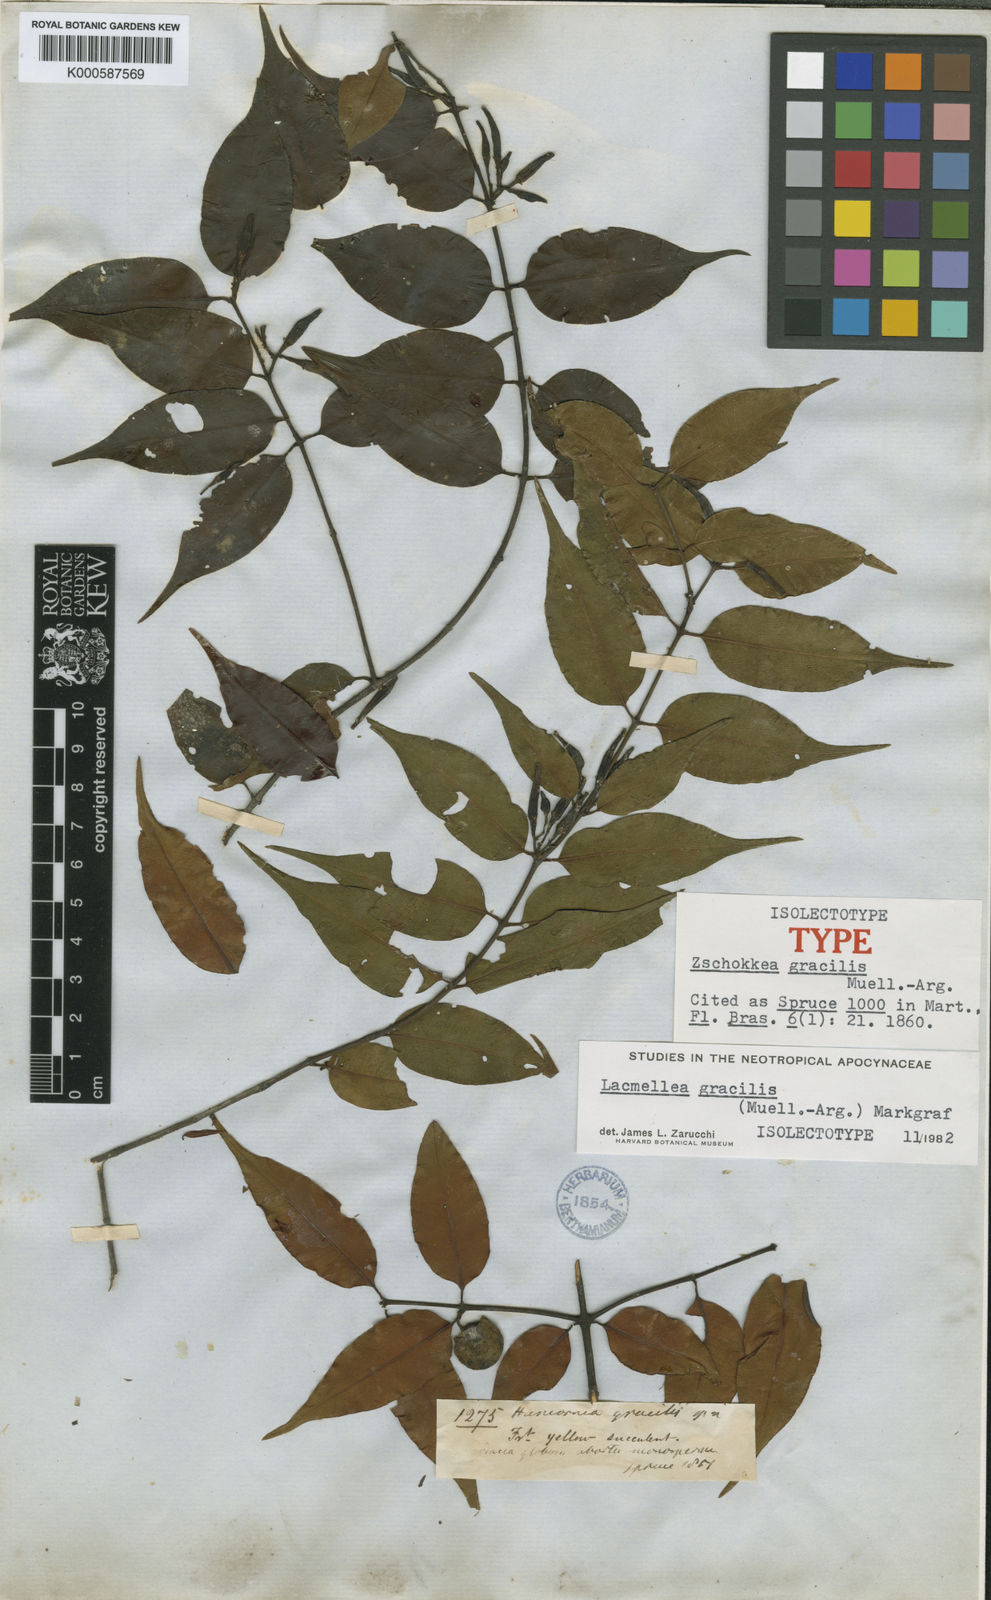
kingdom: Plantae
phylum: Tracheophyta
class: Magnoliopsida
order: Gentianales
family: Apocynaceae
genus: Lacmellea
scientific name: Lacmellea
